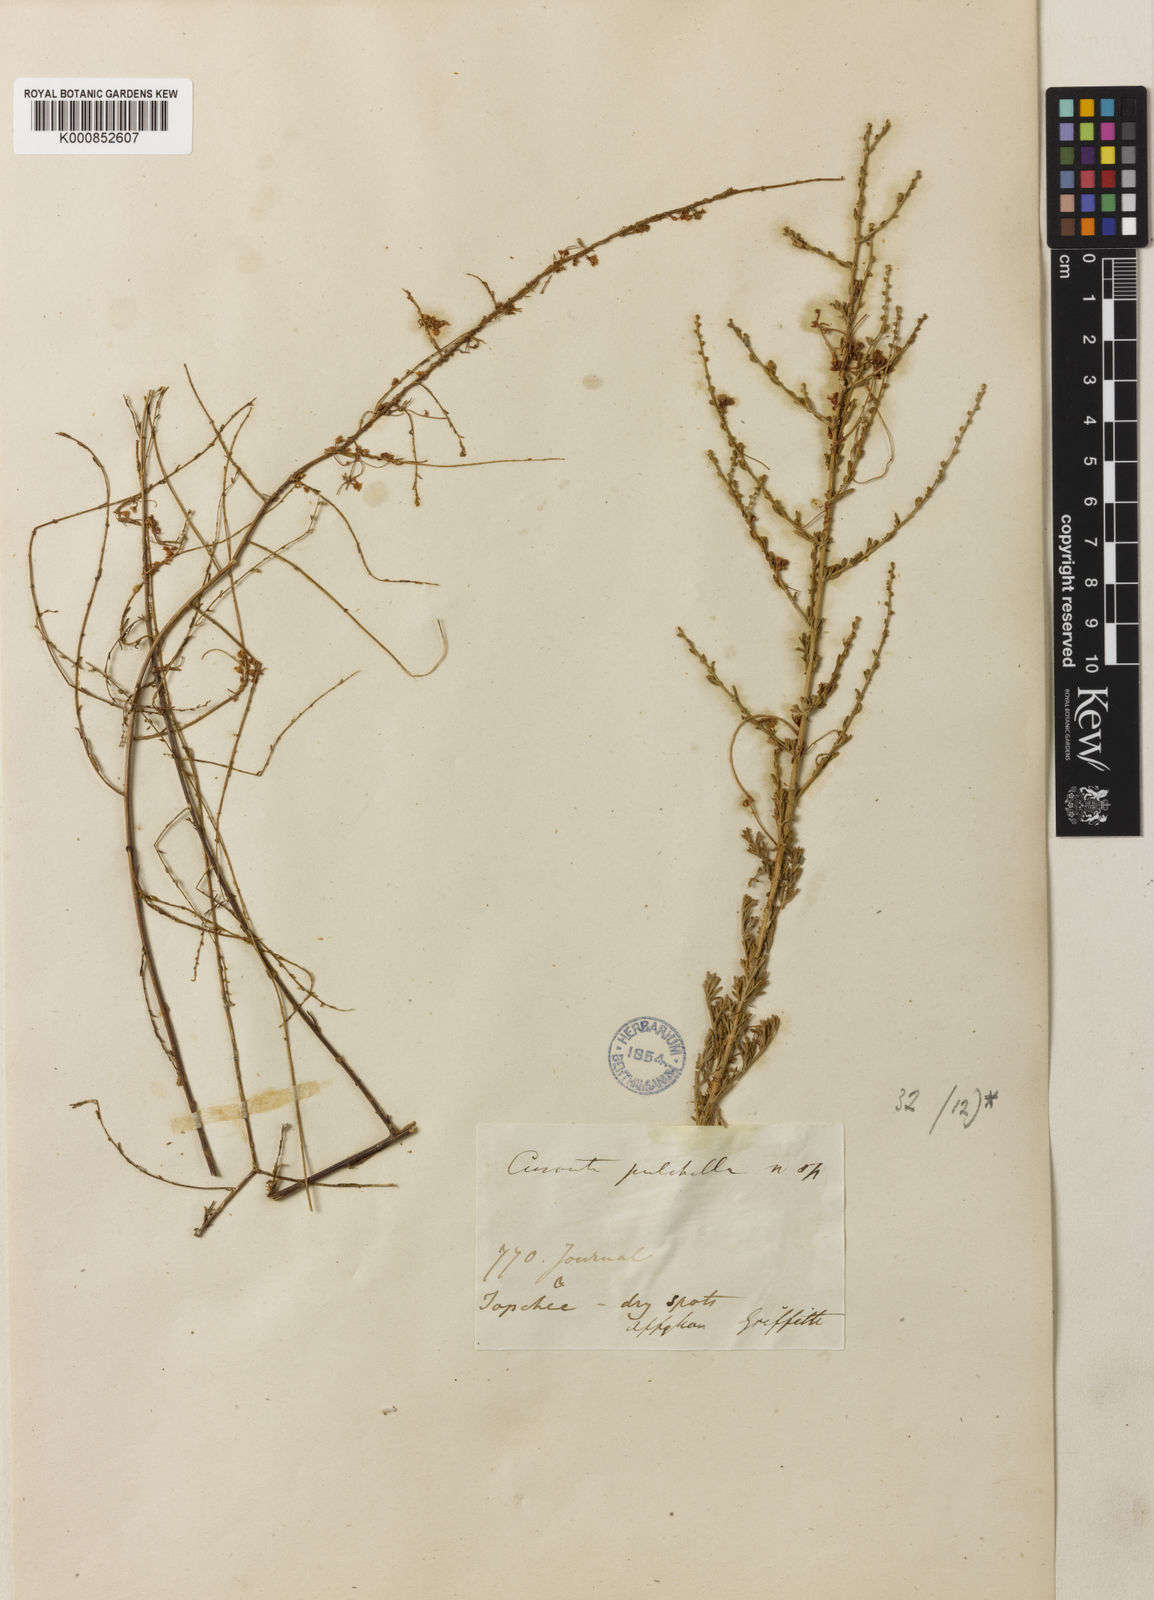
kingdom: Plantae
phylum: Tracheophyta
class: Magnoliopsida
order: Solanales
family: Convolvulaceae
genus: Cuscuta
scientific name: Cuscuta pulchella
